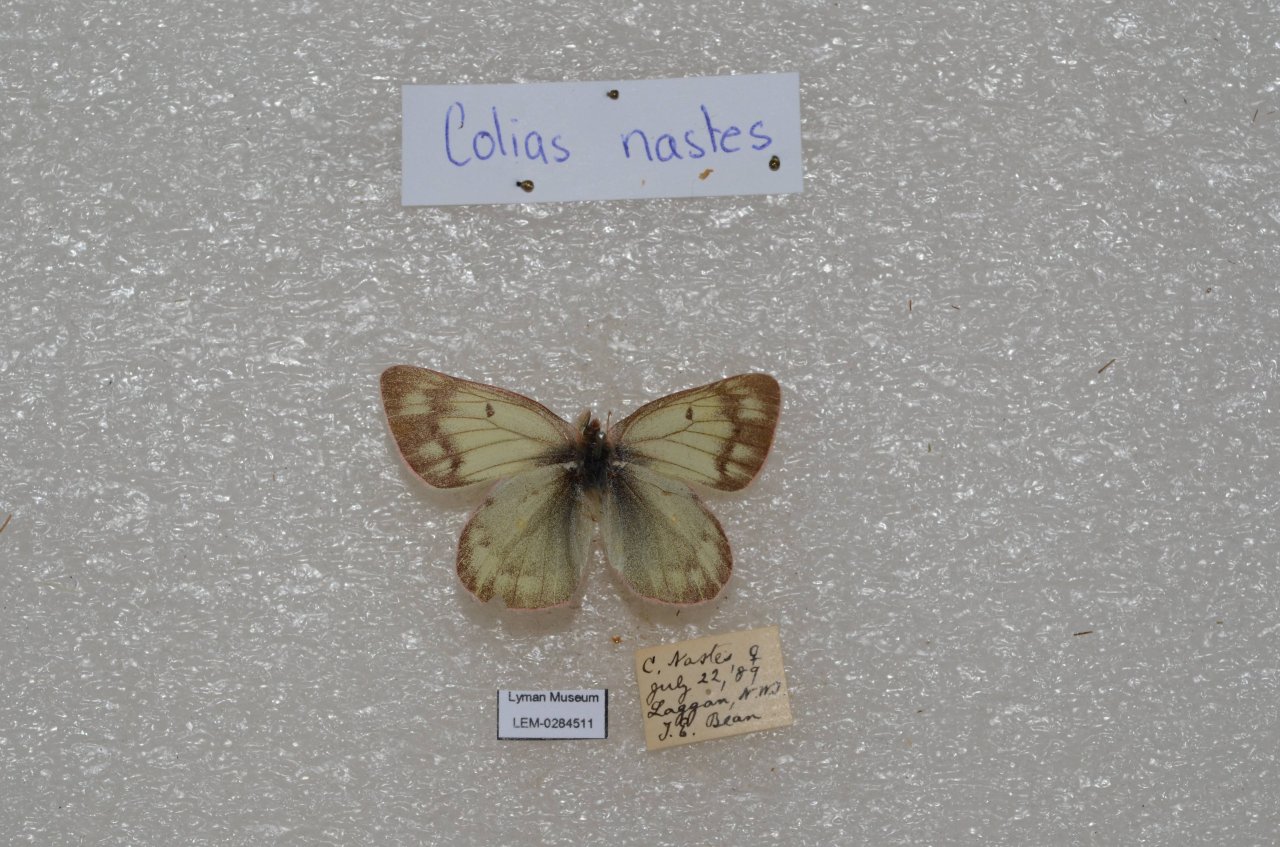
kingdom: Animalia
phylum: Arthropoda
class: Insecta
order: Lepidoptera
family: Pieridae
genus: Colias
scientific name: Colias nastes
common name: Labrador Sulphur
